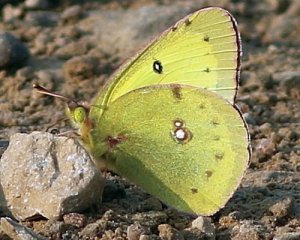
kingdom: Animalia
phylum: Arthropoda
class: Insecta
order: Lepidoptera
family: Pieridae
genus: Colias
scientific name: Colias philodice
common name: Clouded Sulphur
